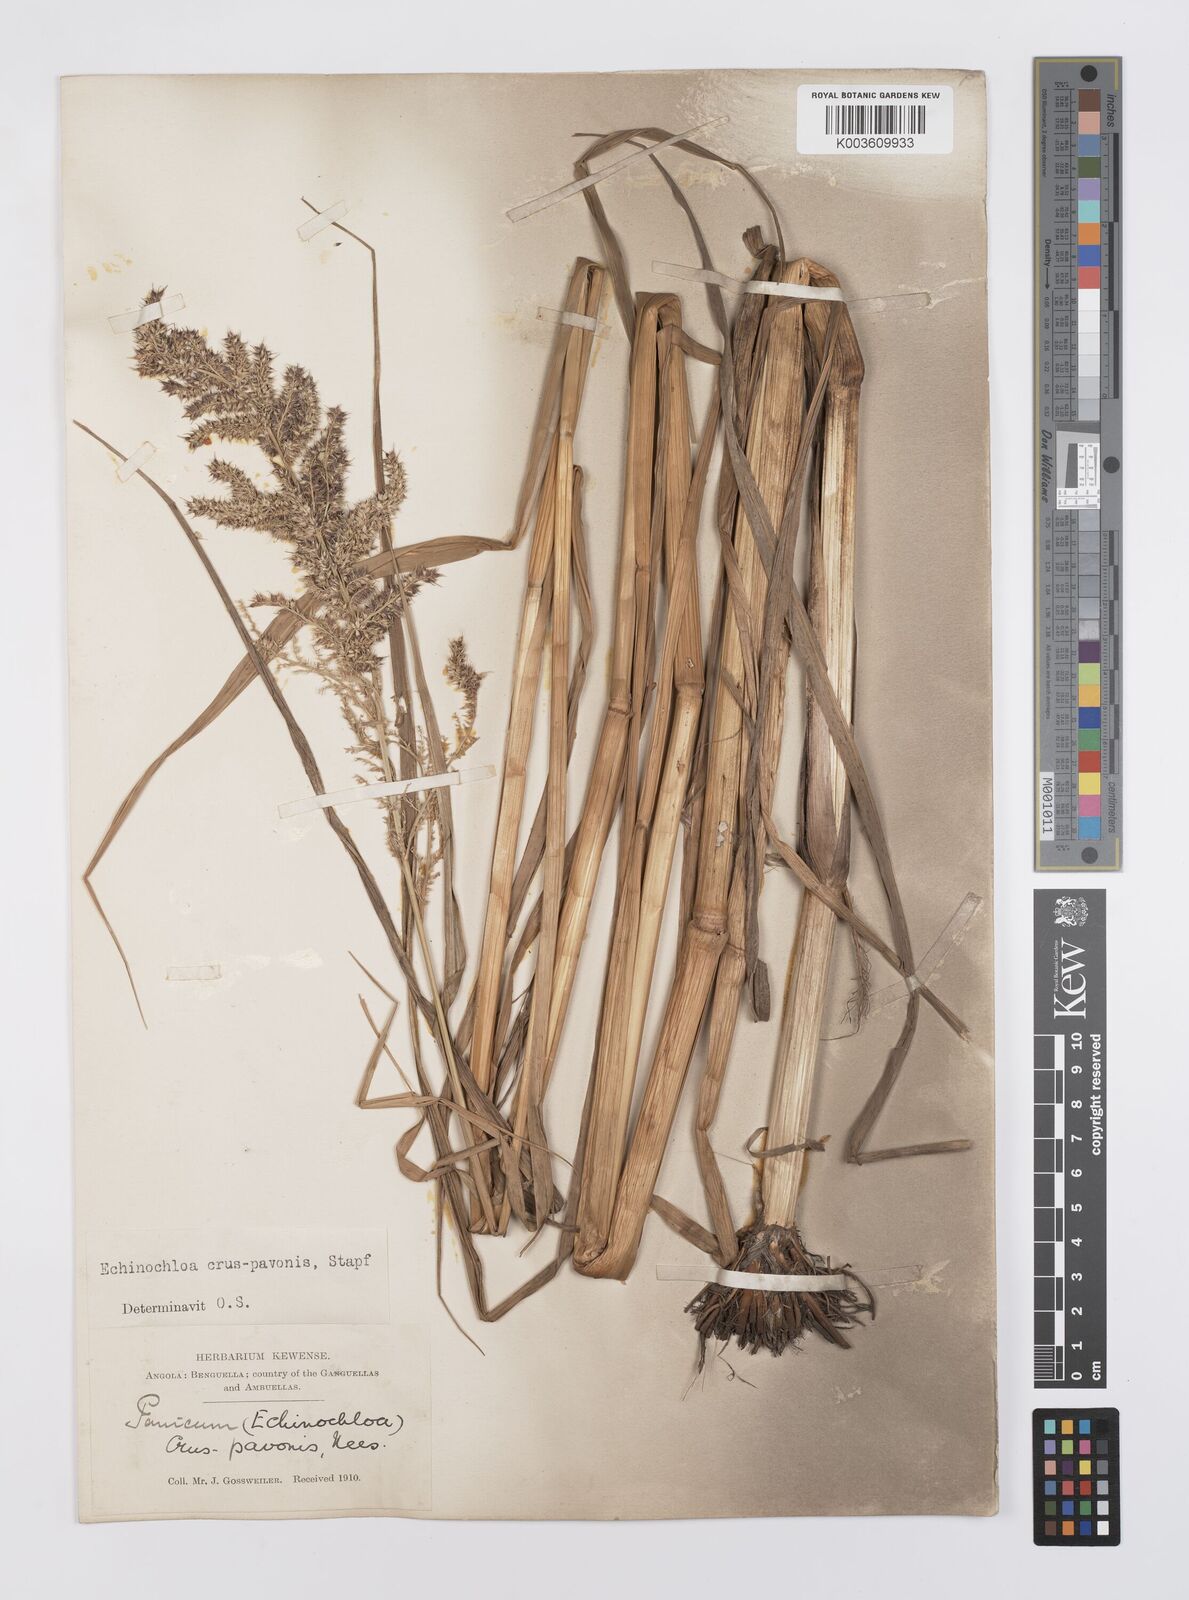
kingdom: Plantae
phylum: Tracheophyta
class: Liliopsida
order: Poales
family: Poaceae
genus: Echinochloa
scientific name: Echinochloa crus-pavonis
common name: Gulf cockspur grass
